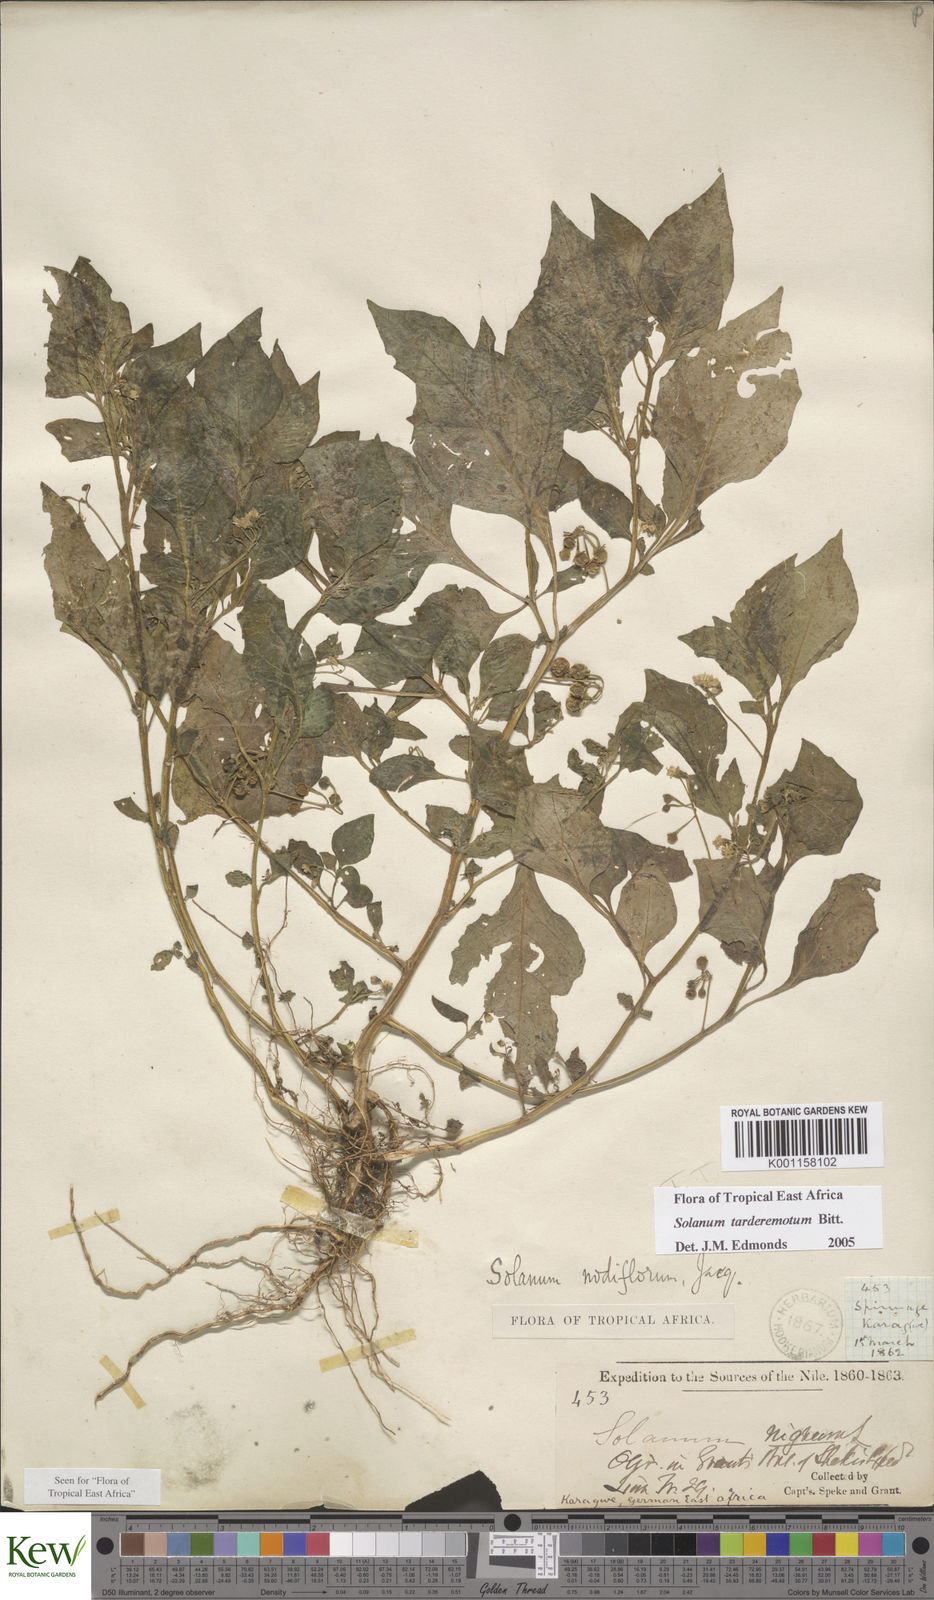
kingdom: Plantae
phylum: Tracheophyta
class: Magnoliopsida
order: Solanales
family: Solanaceae
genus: Solanum
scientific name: Solanum tarderemotum
